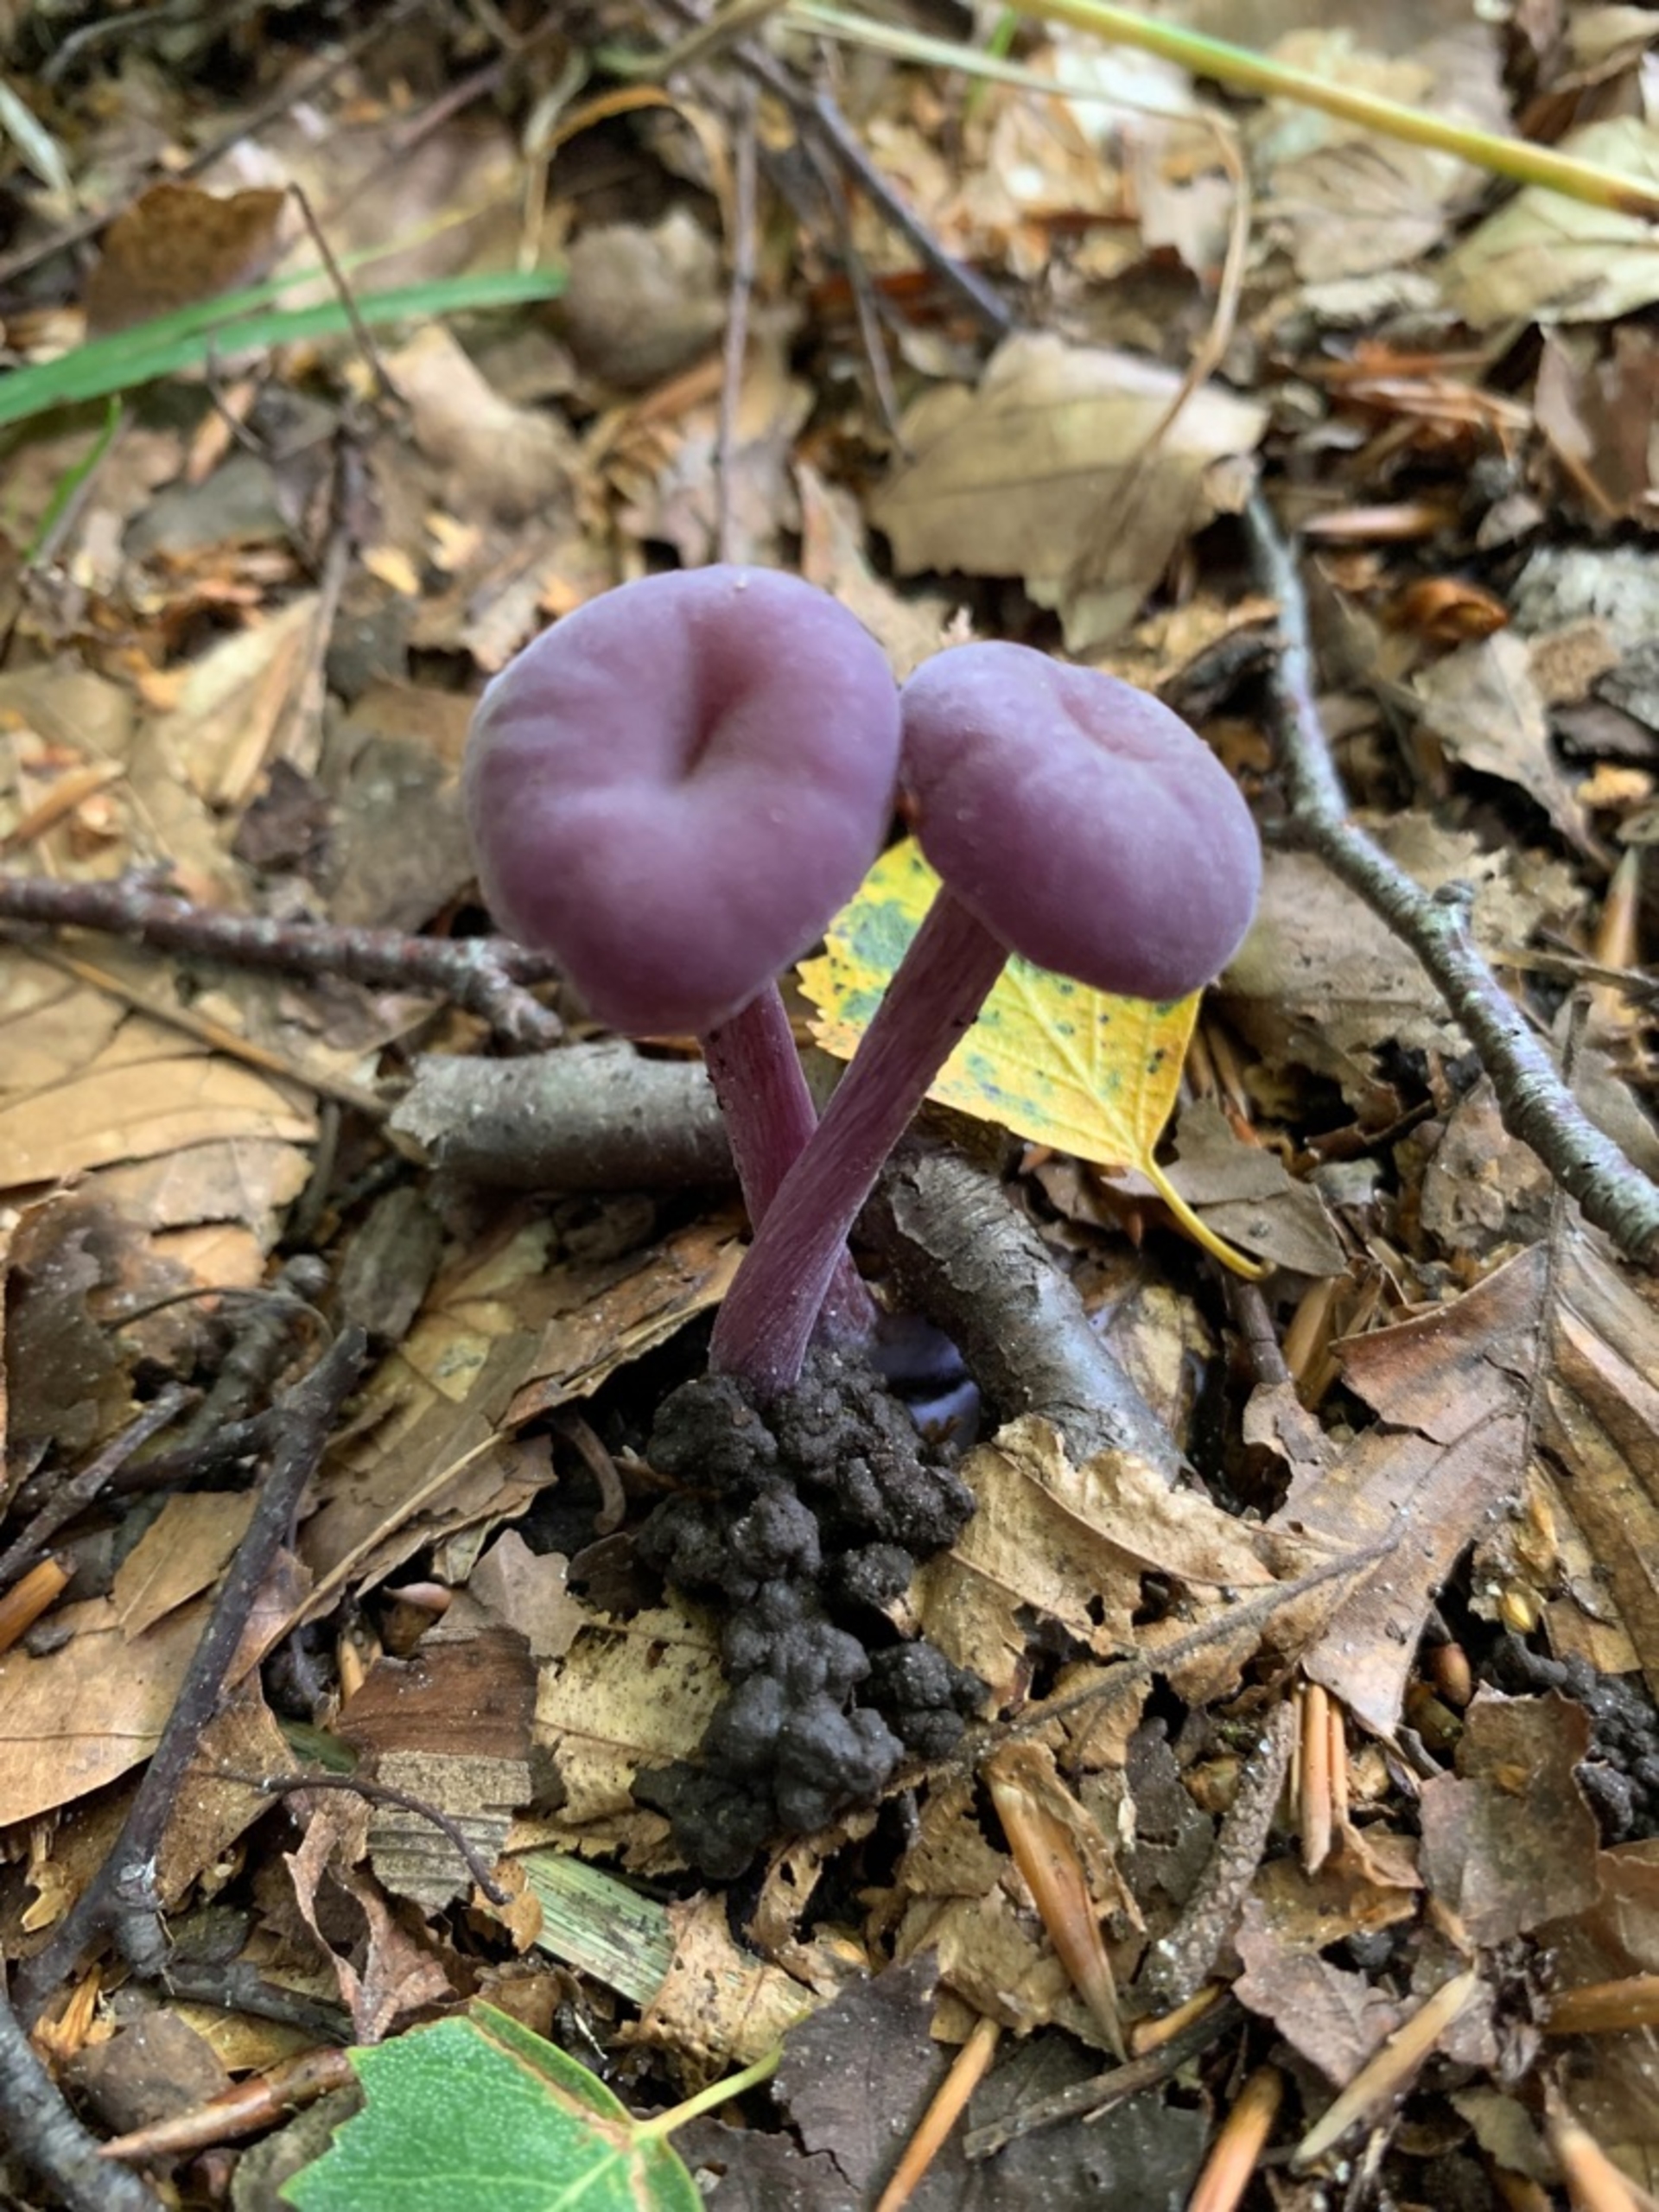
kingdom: Fungi
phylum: Basidiomycota
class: Agaricomycetes
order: Agaricales
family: Hydnangiaceae
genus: Laccaria
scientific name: Laccaria amethystina
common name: Violet ametysthat
